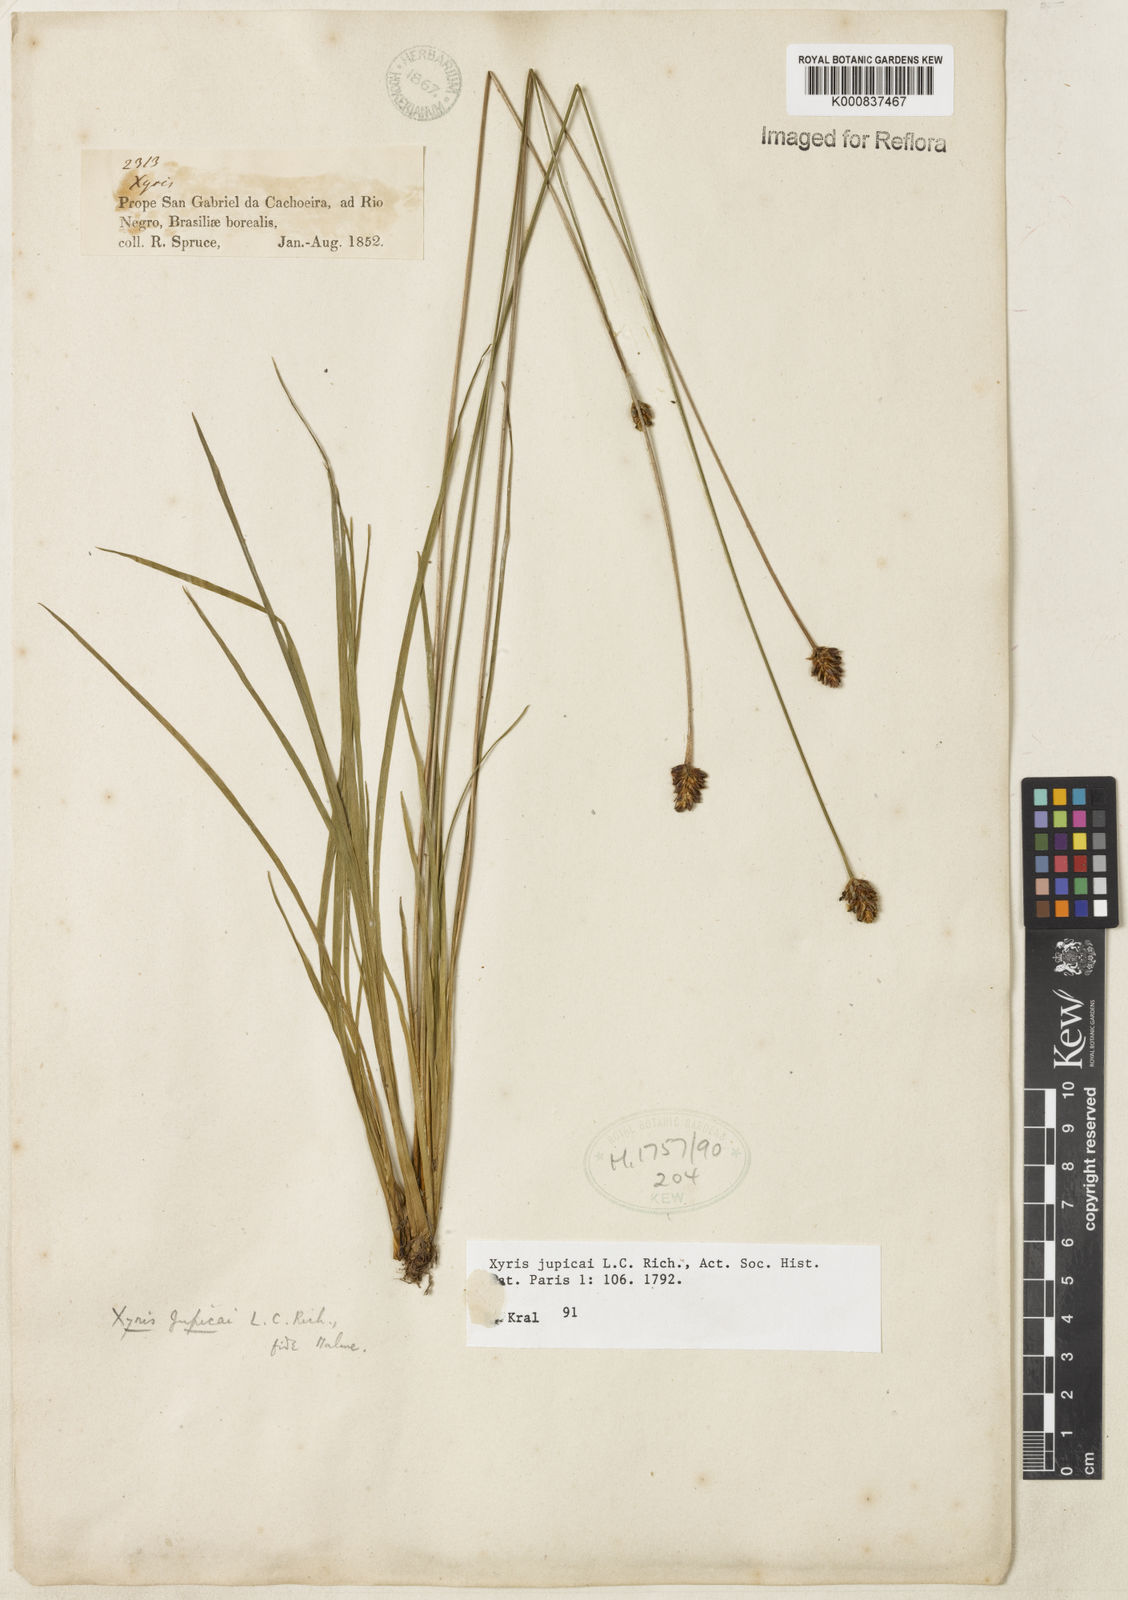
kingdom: Plantae
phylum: Tracheophyta
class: Liliopsida
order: Poales
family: Xyridaceae
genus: Xyris
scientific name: Xyris jupicai
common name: Richard's yelloweyed grass
